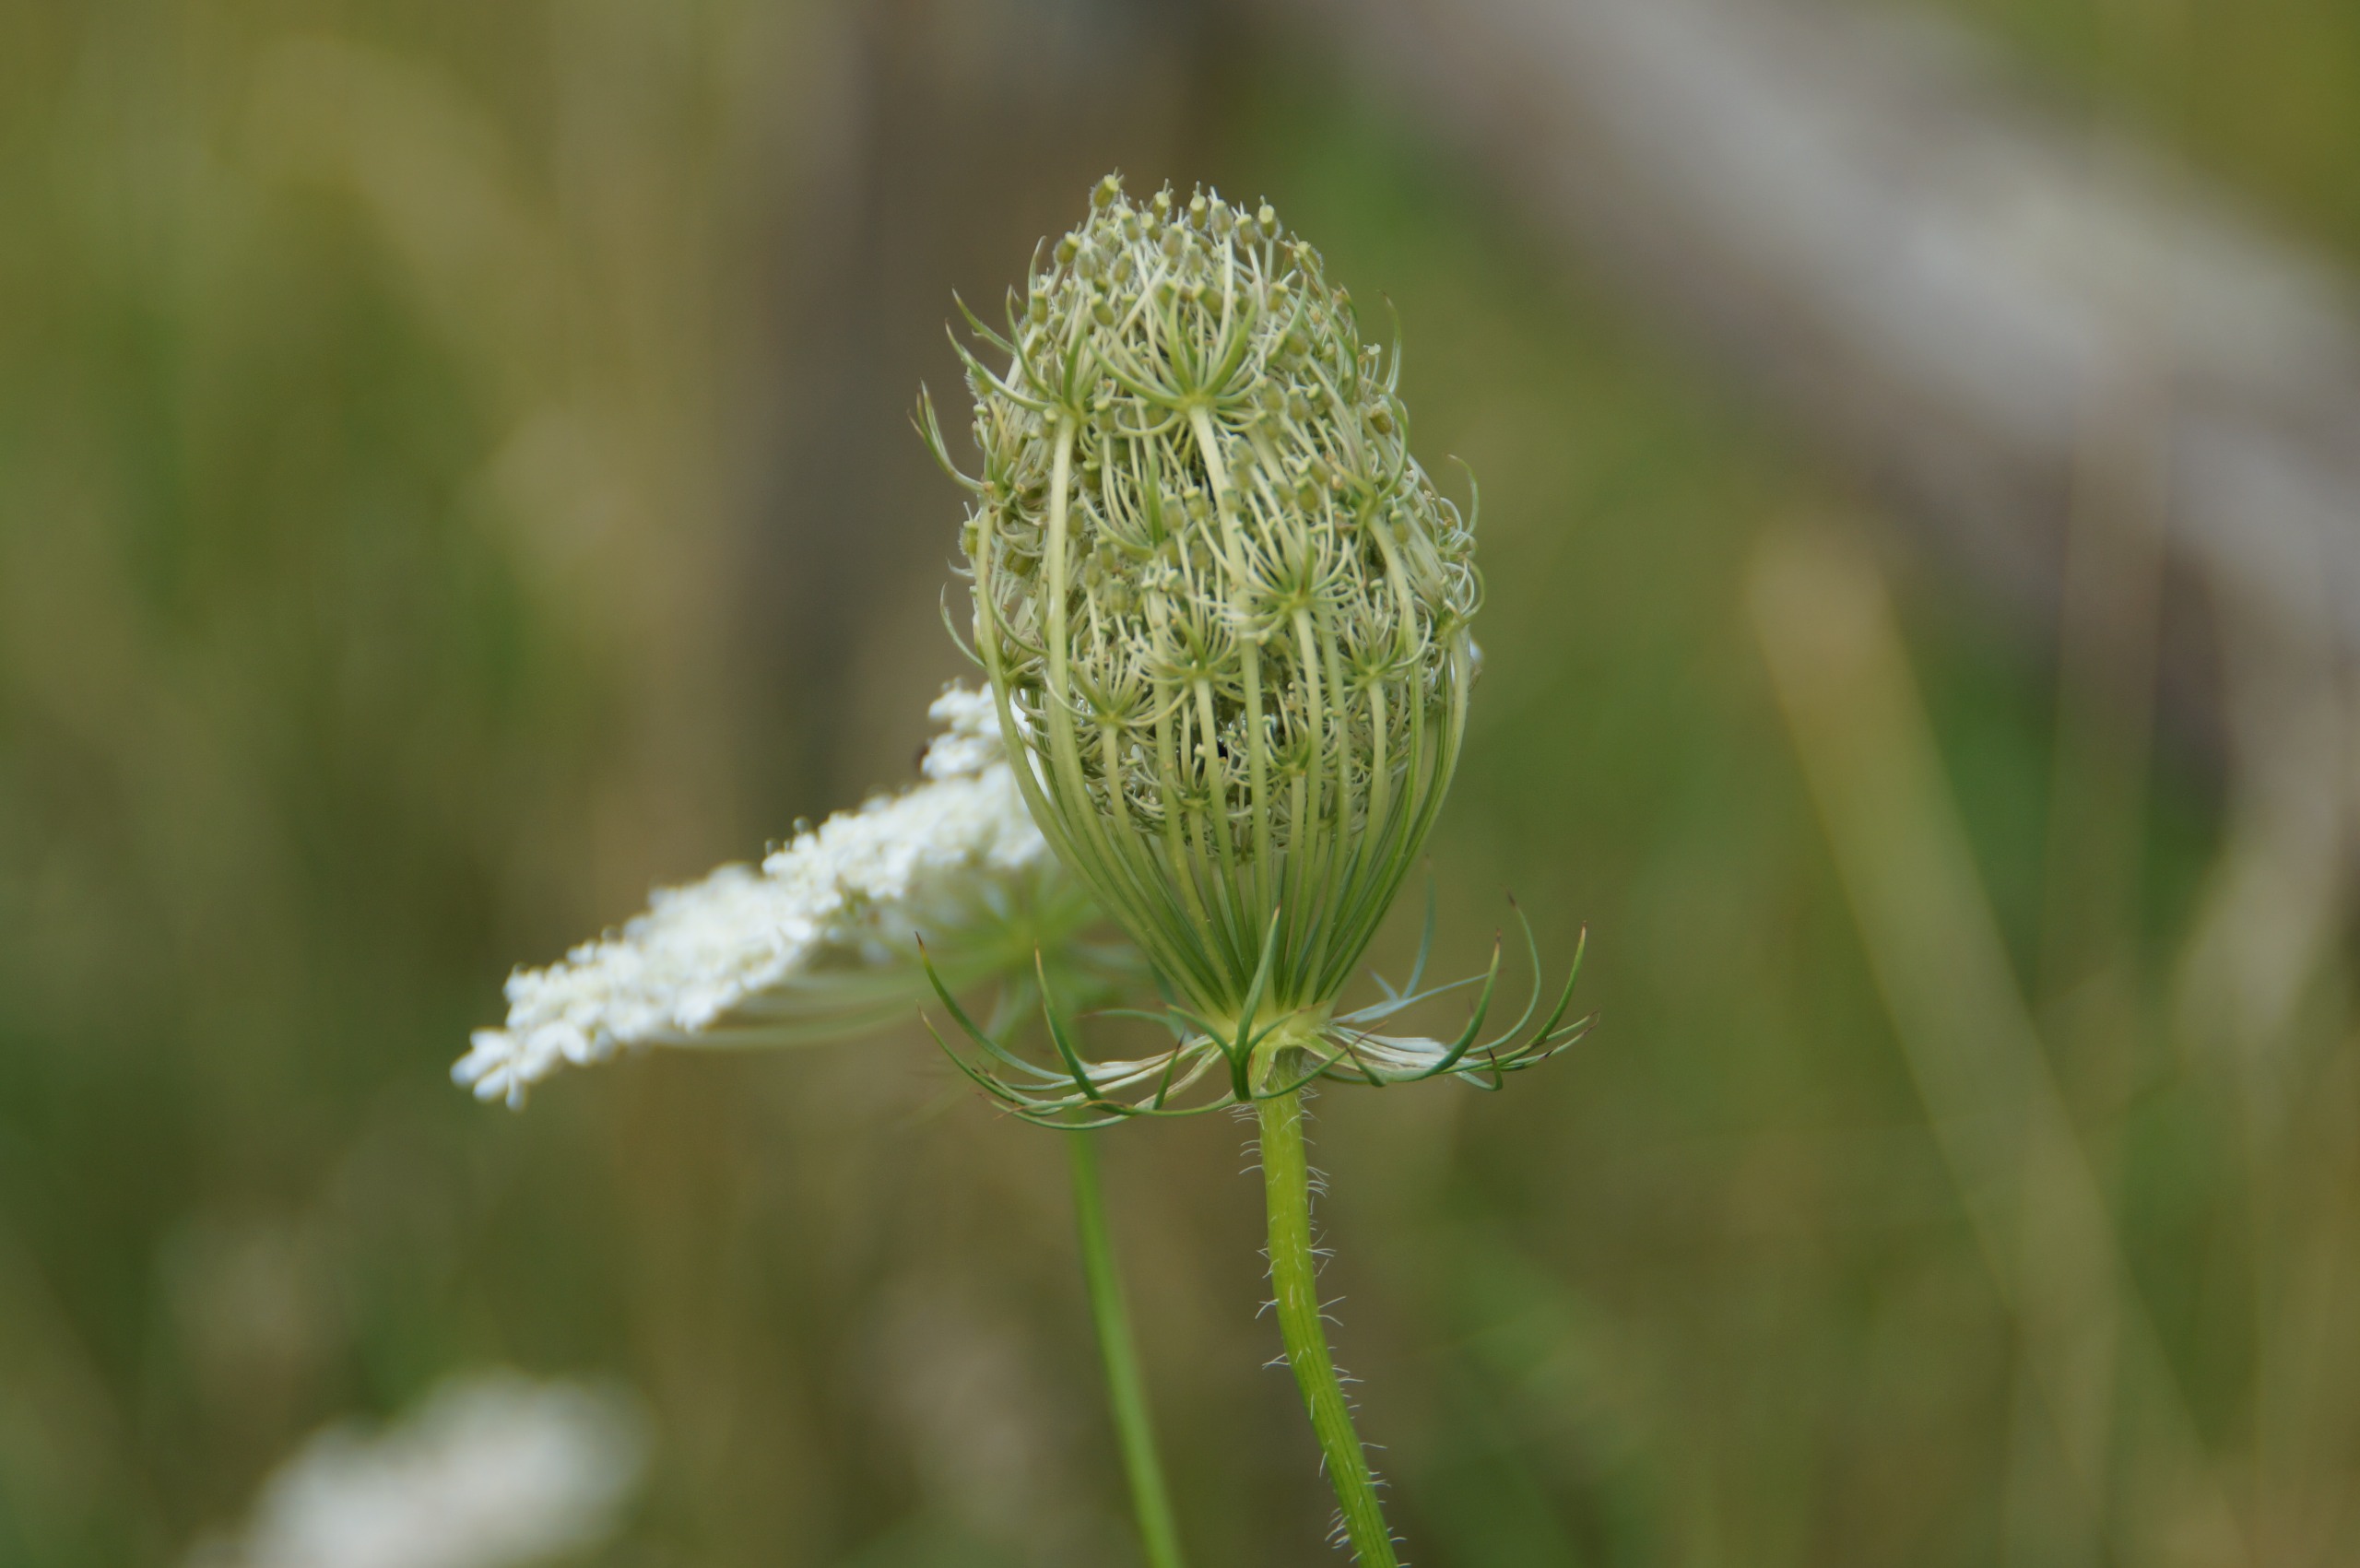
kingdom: Plantae
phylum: Tracheophyta
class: Magnoliopsida
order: Apiales
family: Apiaceae
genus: Daucus
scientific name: Daucus carota
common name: Gulerod
